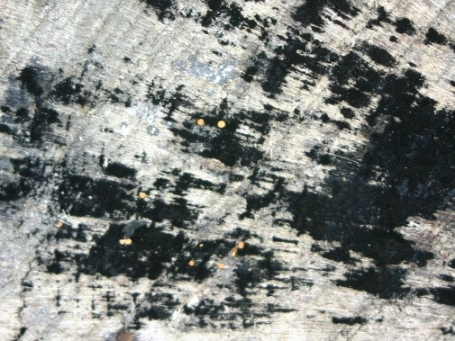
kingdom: Fungi
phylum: Ascomycota
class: Leotiomycetes
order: Helotiales
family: Helotiaceae
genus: Bispora
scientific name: Bispora pallescens
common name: måtte-snitskive
